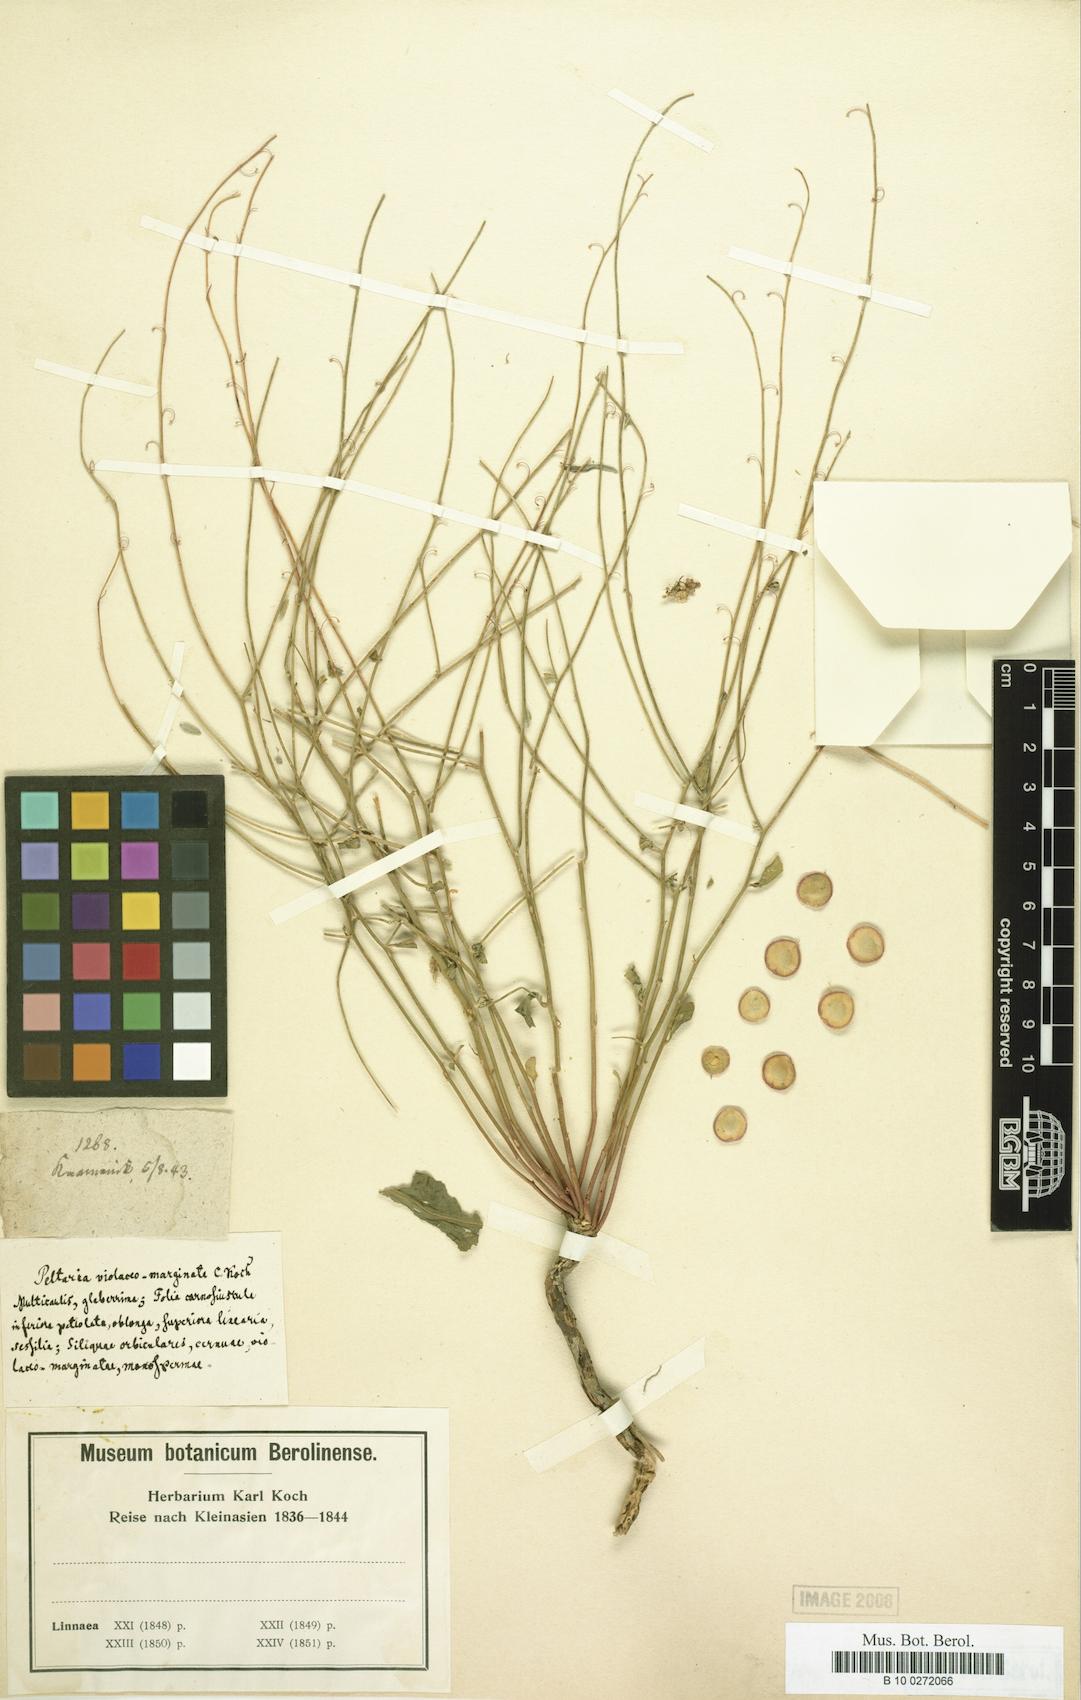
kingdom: Plantae
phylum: Tracheophyta
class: Magnoliopsida
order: Brassicales
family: Brassicaceae
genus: Peltaria
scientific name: Peltaria
